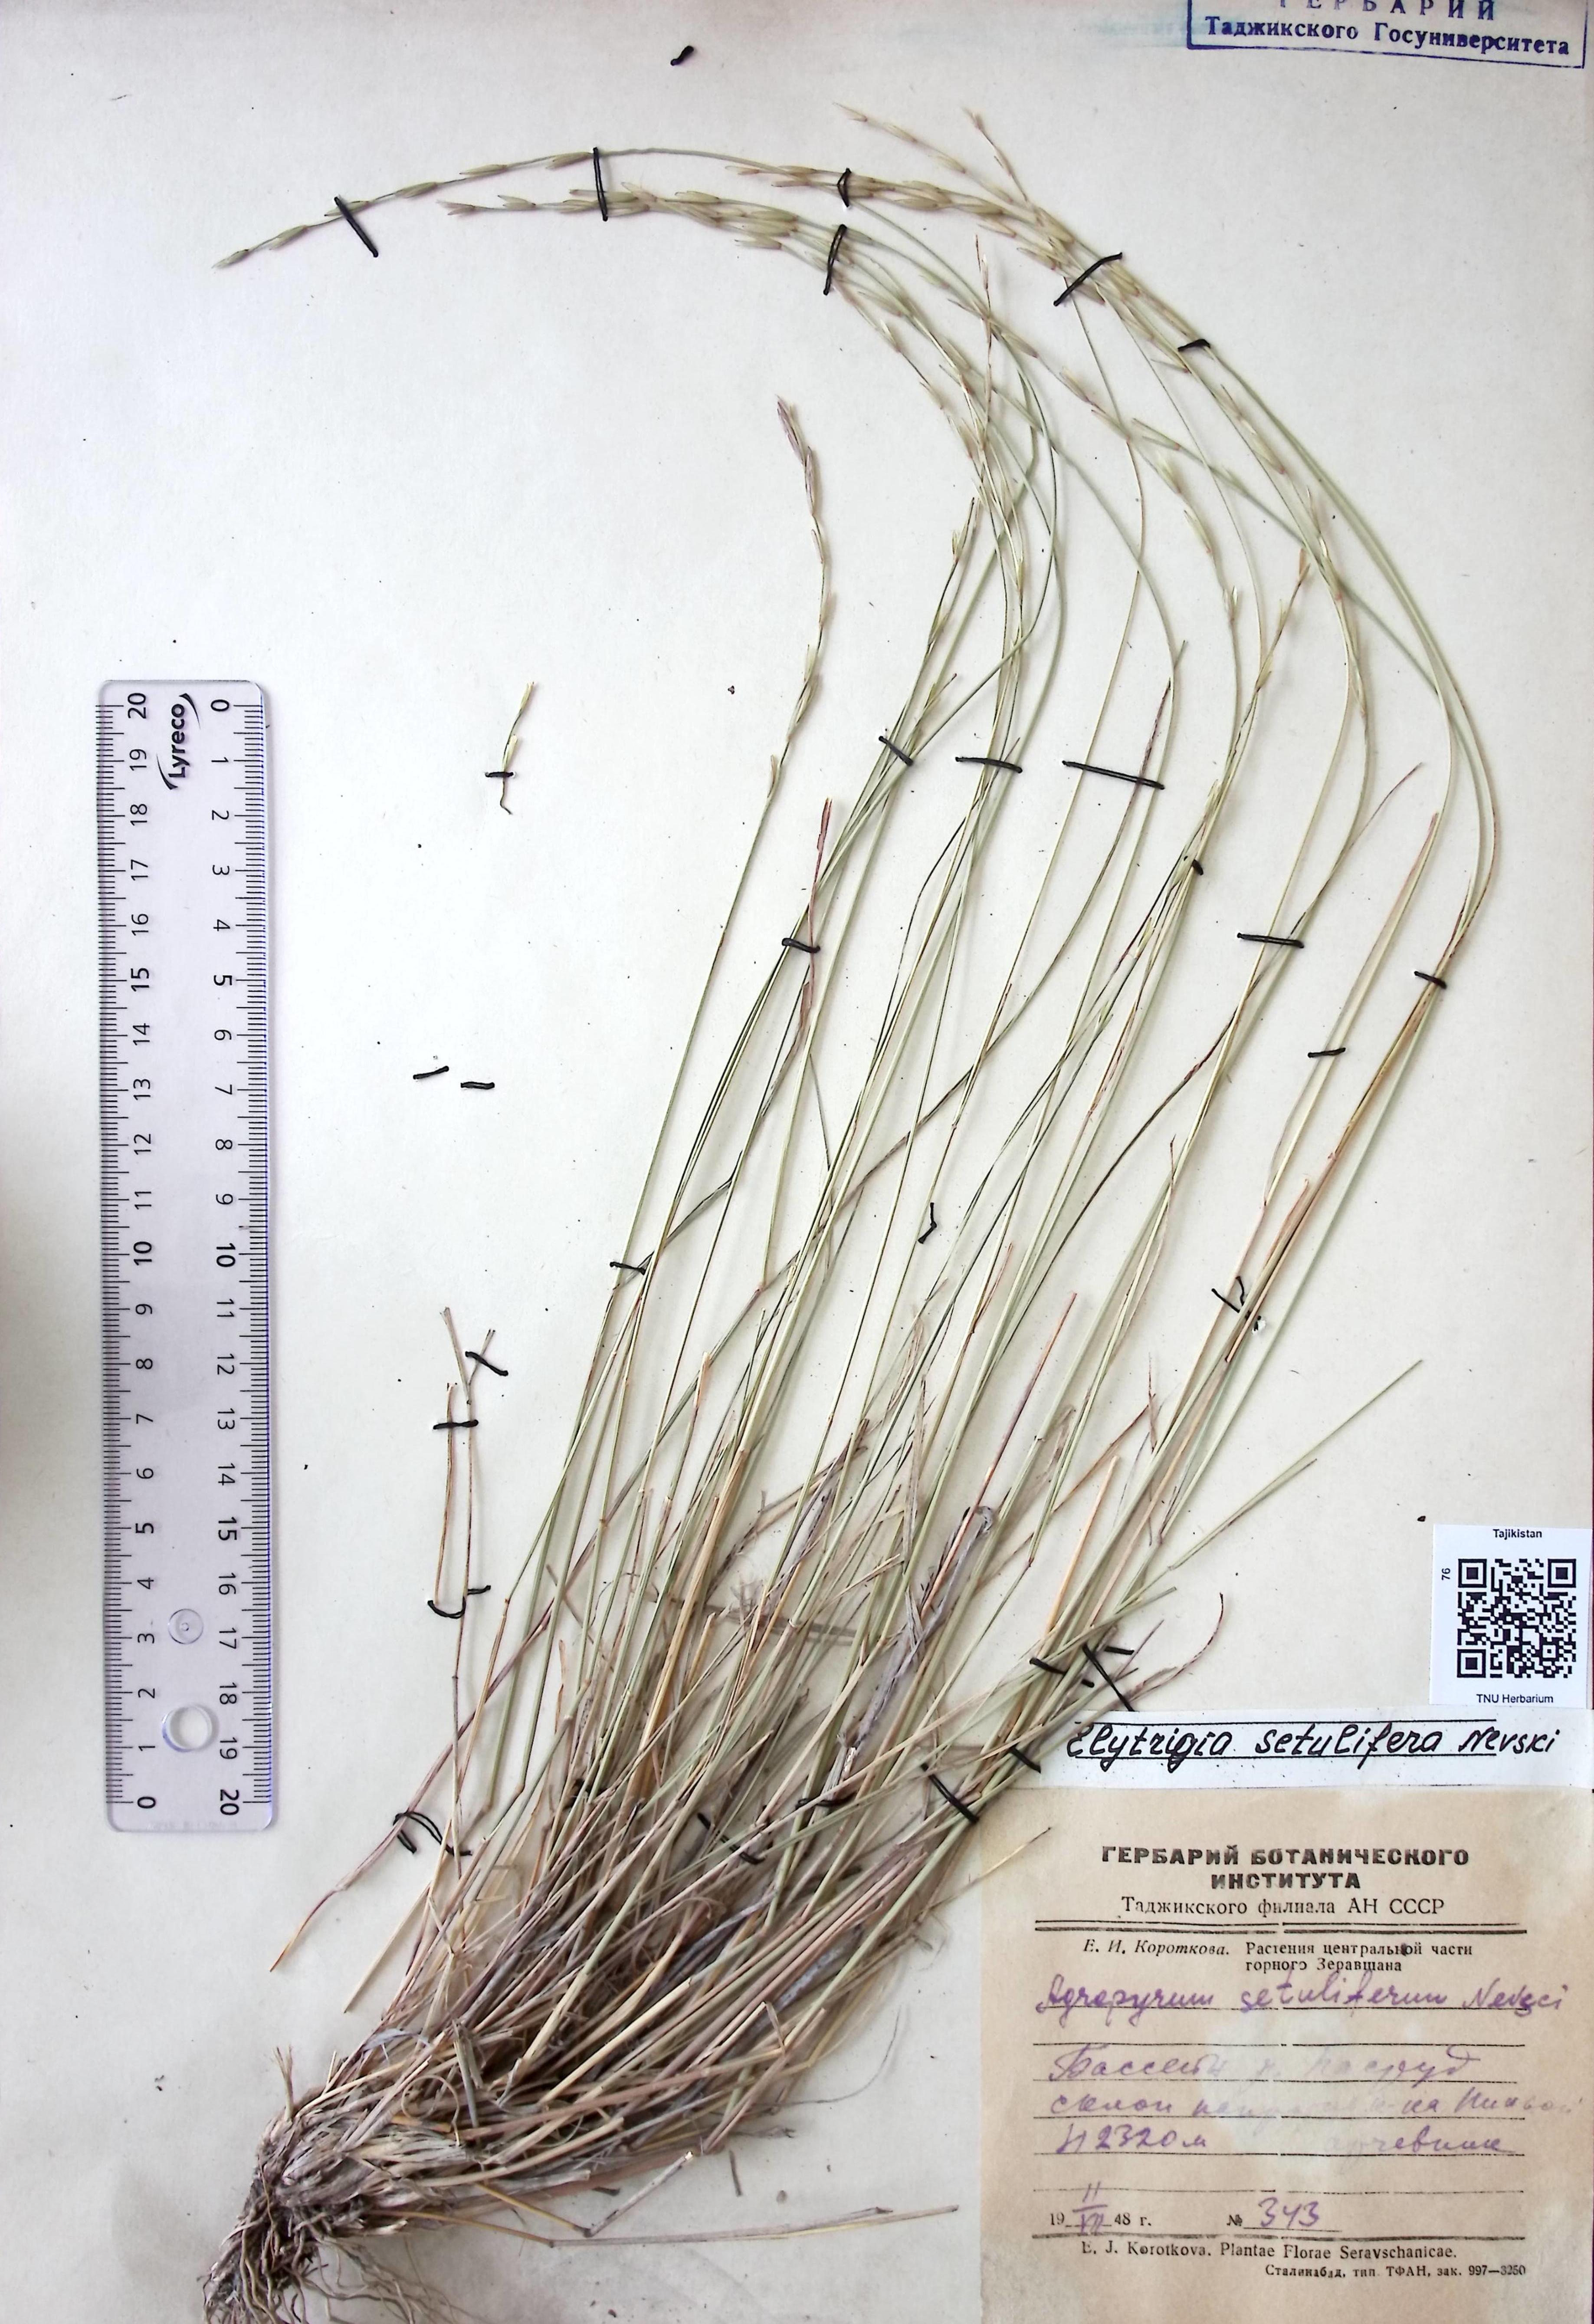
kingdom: Plantae
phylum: Tracheophyta
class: Liliopsida
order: Poales
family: Poaceae
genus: Pseudoroegneria
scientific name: Pseudoroegneria setulifera
